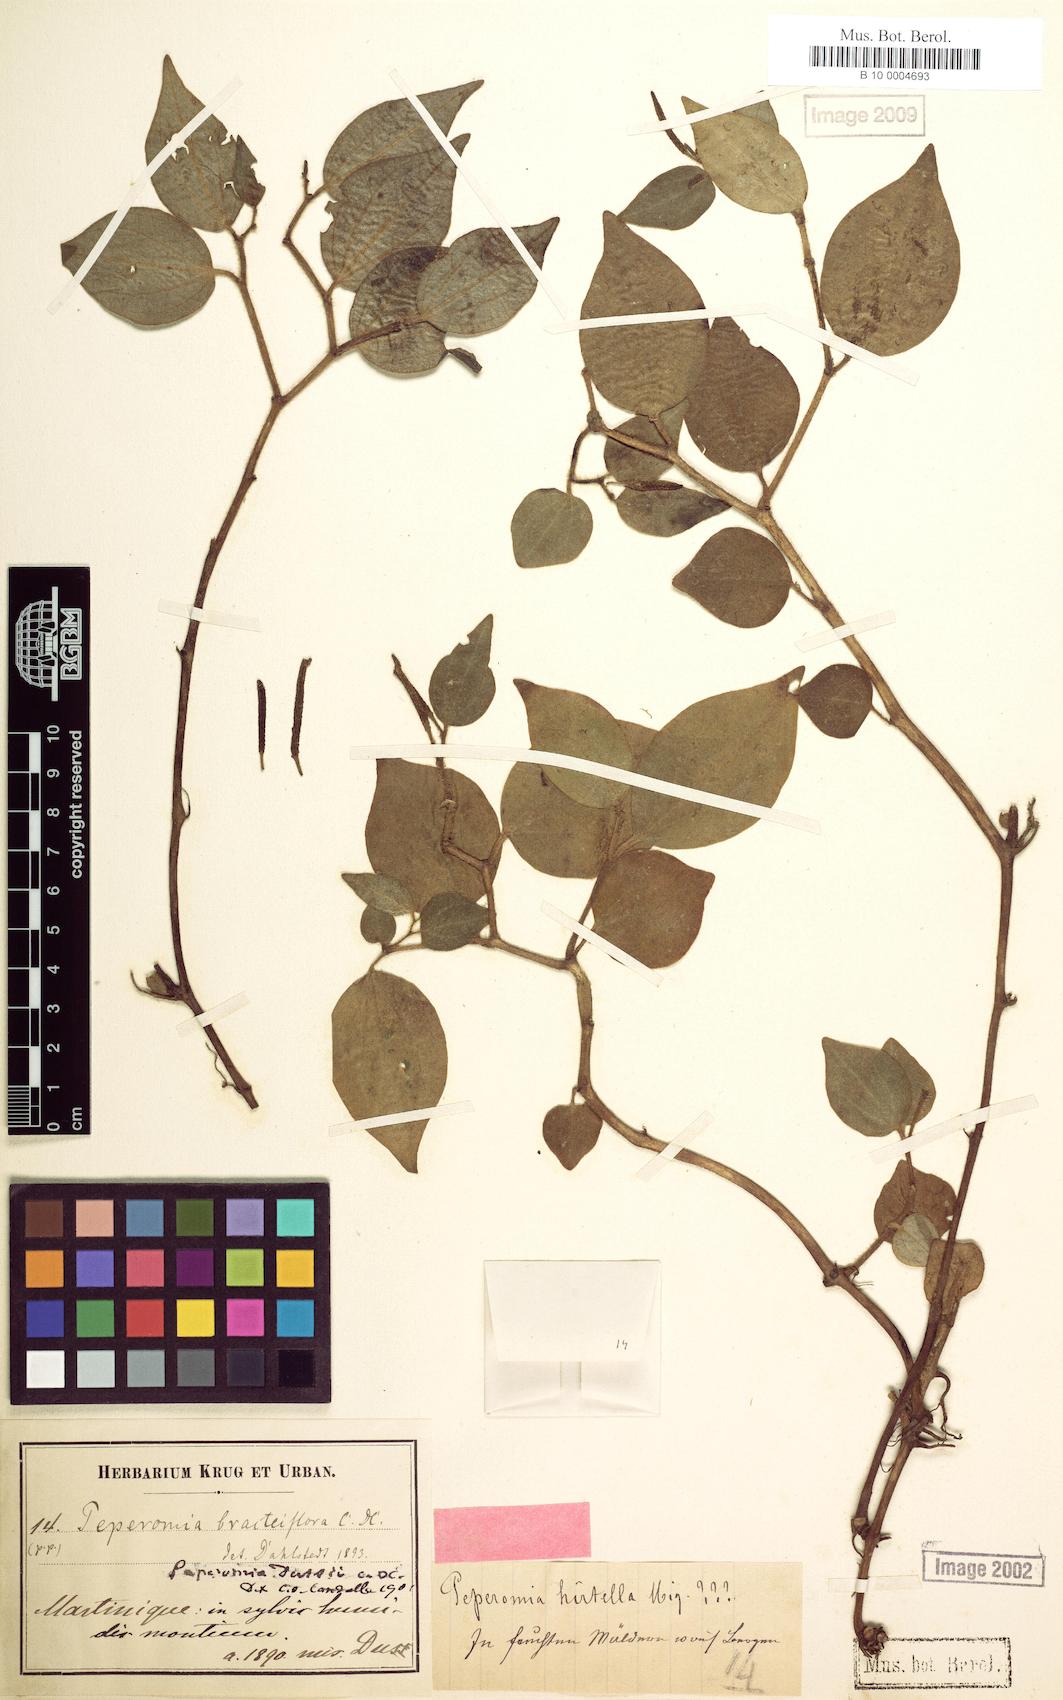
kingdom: Plantae
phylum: Tracheophyta
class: Magnoliopsida
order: Piperales
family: Piperaceae
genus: Peperomia
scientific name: Peperomia hirtella
